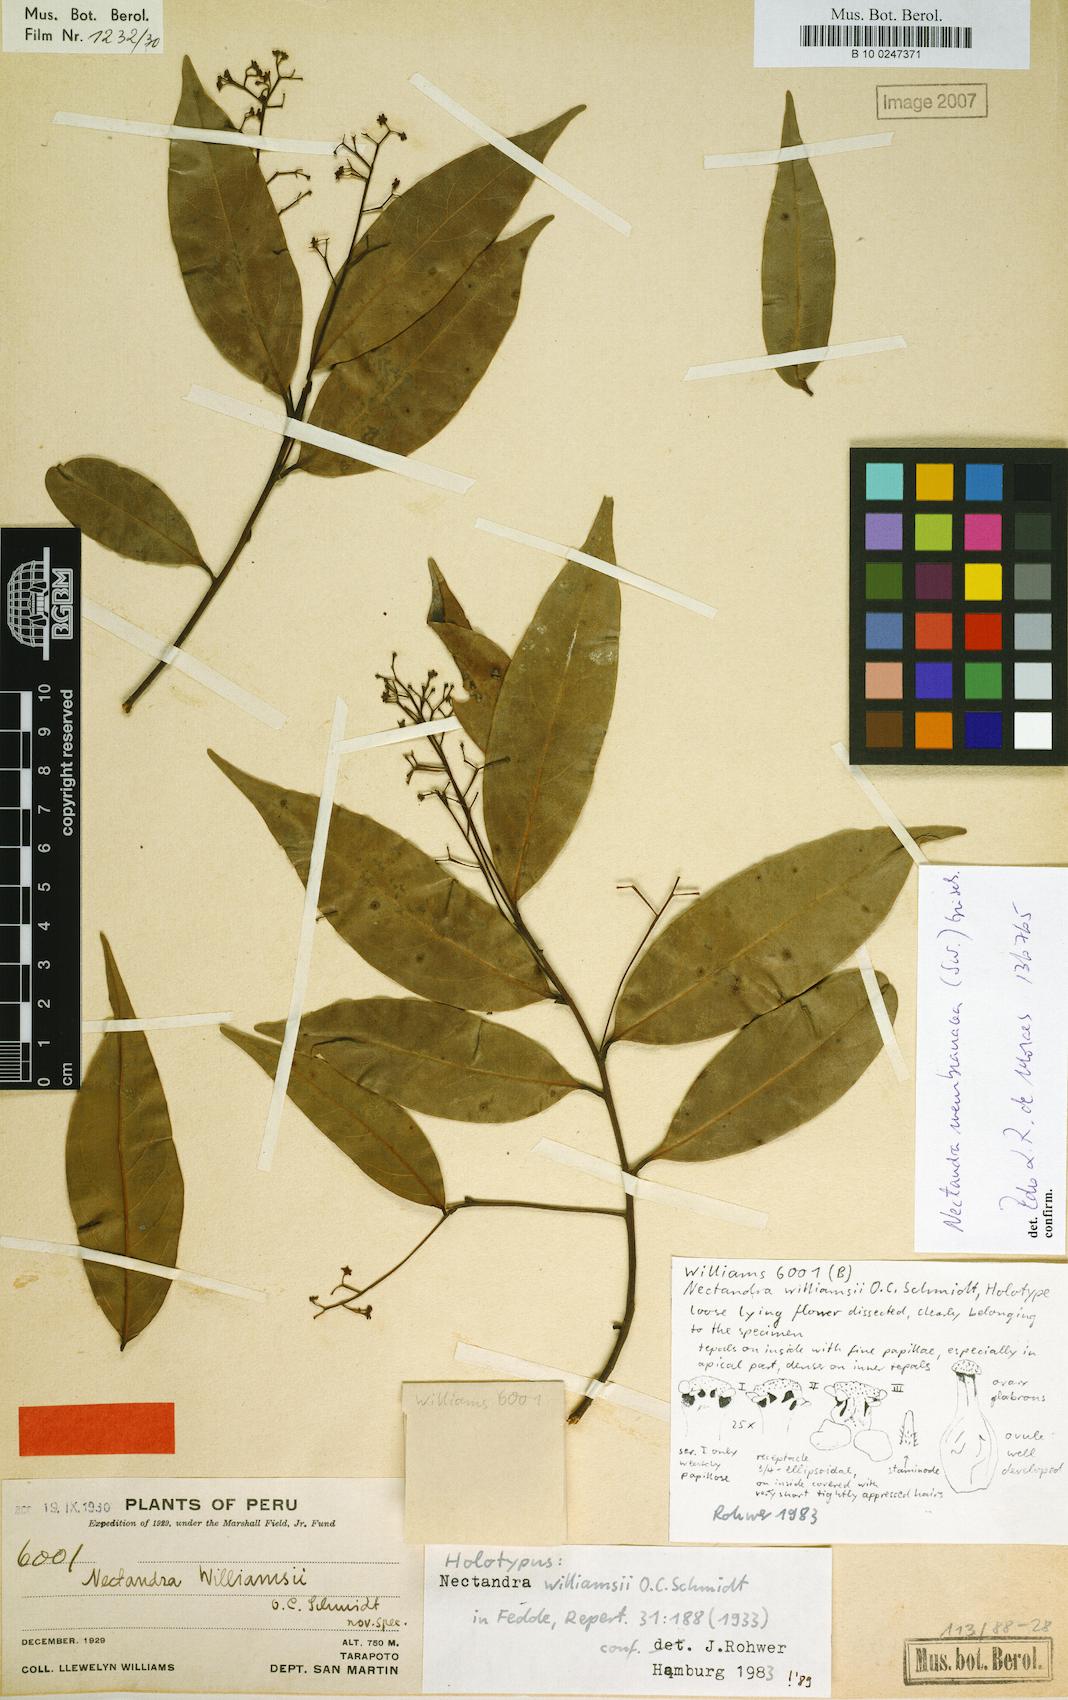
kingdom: Plantae
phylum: Tracheophyta
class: Magnoliopsida
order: Laurales
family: Lauraceae
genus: Nectandra
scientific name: Nectandra membranacea
